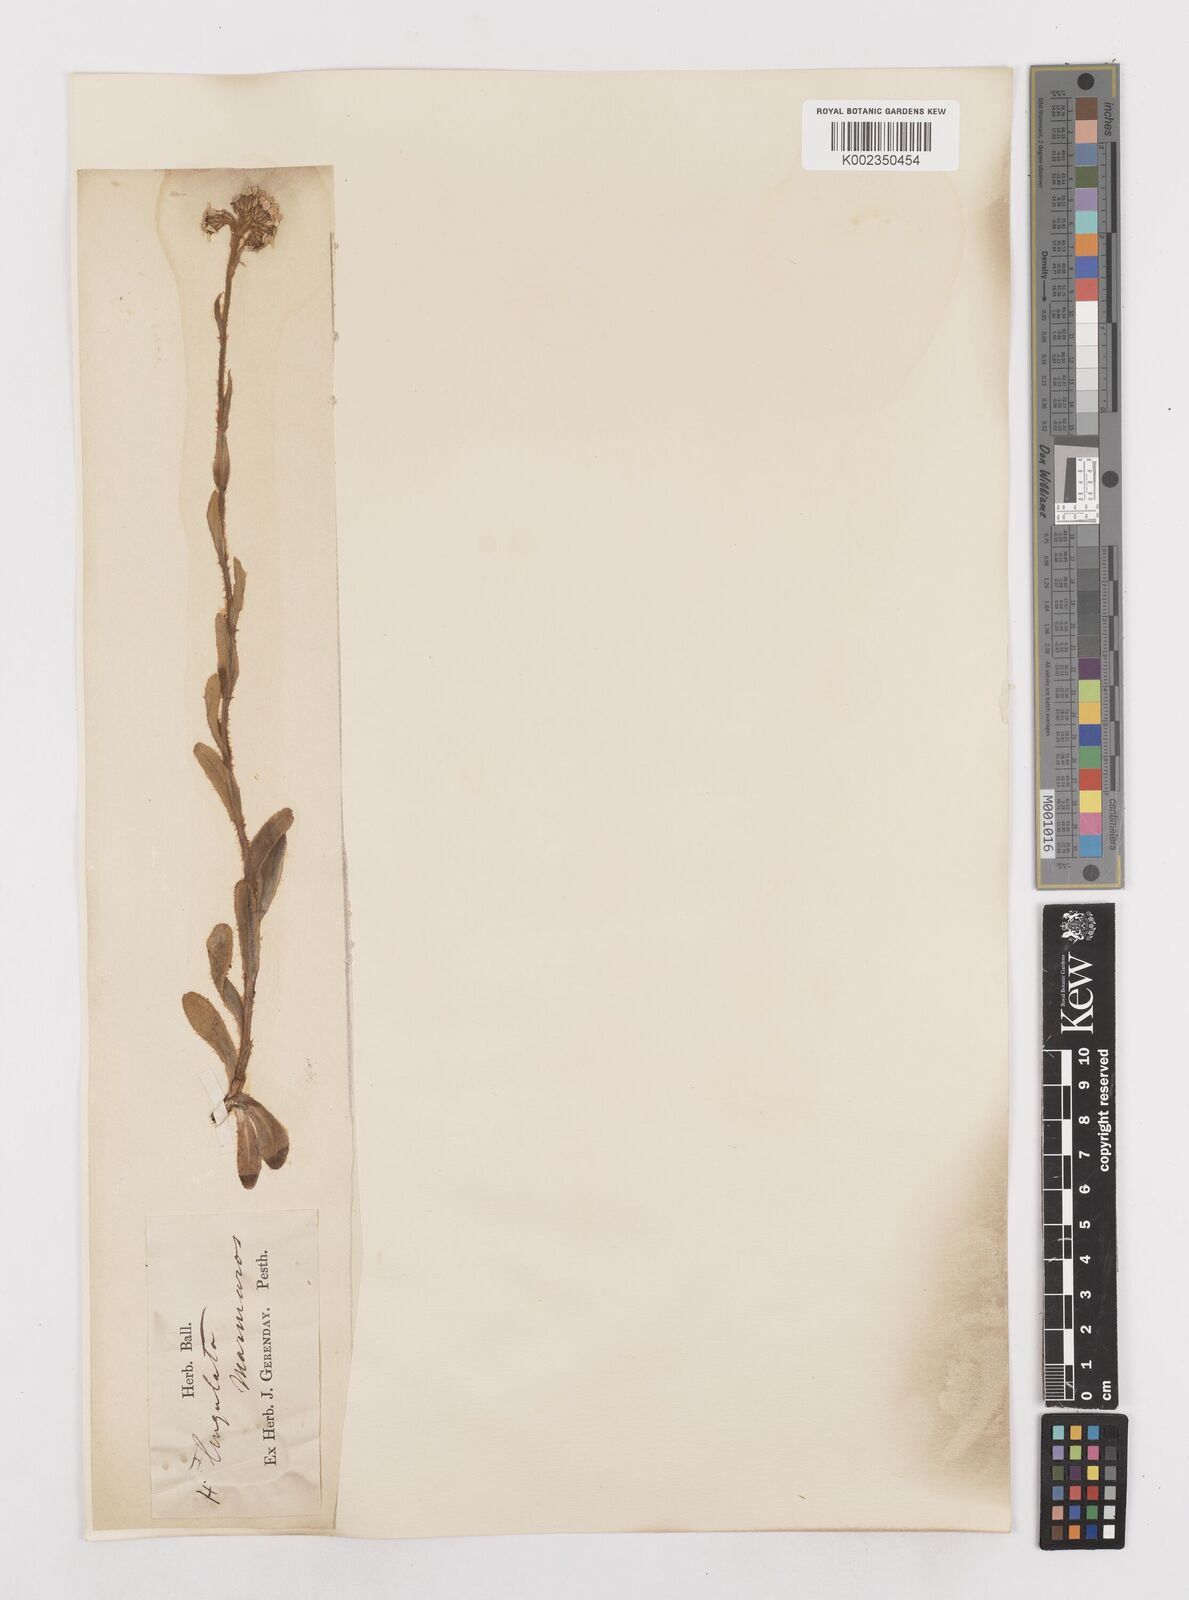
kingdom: Plantae
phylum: Tracheophyta
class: Magnoliopsida
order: Asterales
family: Asteraceae
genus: Achillea
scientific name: Achillea lingulata
